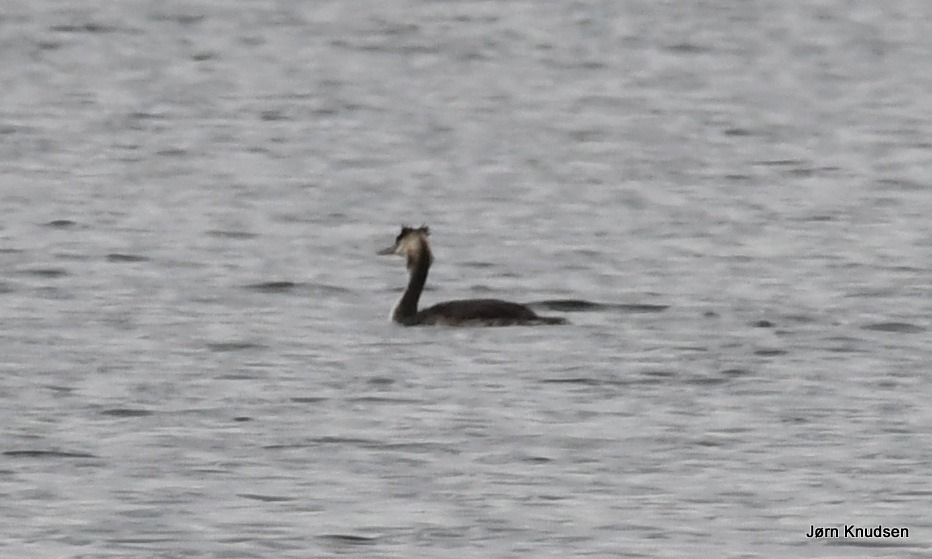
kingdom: Animalia
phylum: Chordata
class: Aves
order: Podicipediformes
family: Podicipedidae
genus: Podiceps
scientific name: Podiceps cristatus
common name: Toppet lappedykker
